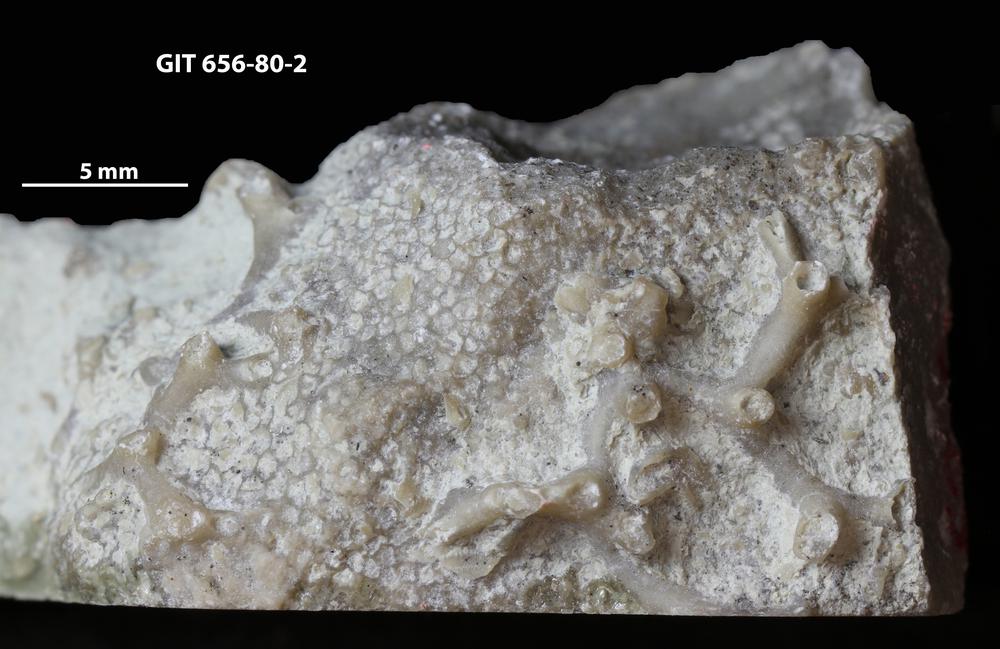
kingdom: Animalia
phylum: Cnidaria
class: Anthozoa
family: Auloporidae
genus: Aulopora
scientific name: Aulopora
